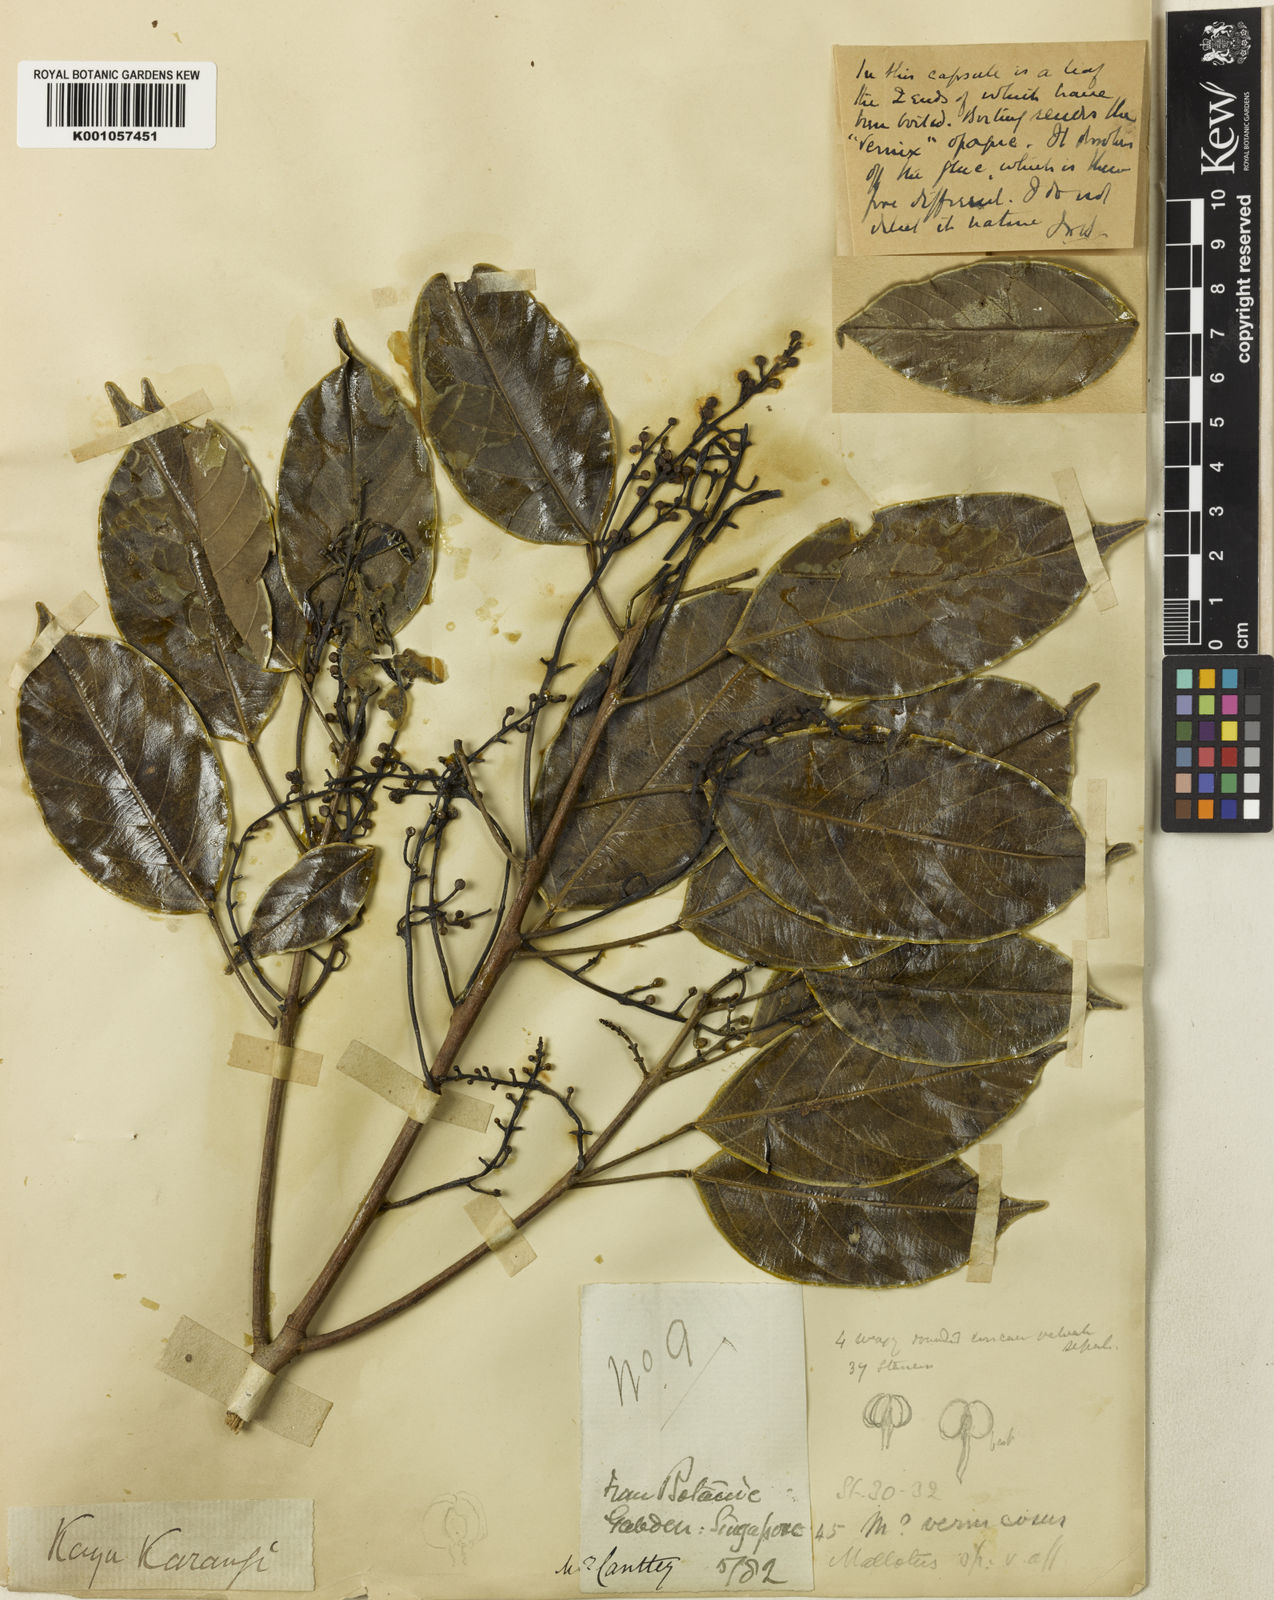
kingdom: Plantae
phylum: Tracheophyta
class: Magnoliopsida
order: Malpighiales
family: Euphorbiaceae
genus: Blumeodendron
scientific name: Blumeodendron tokbrai
